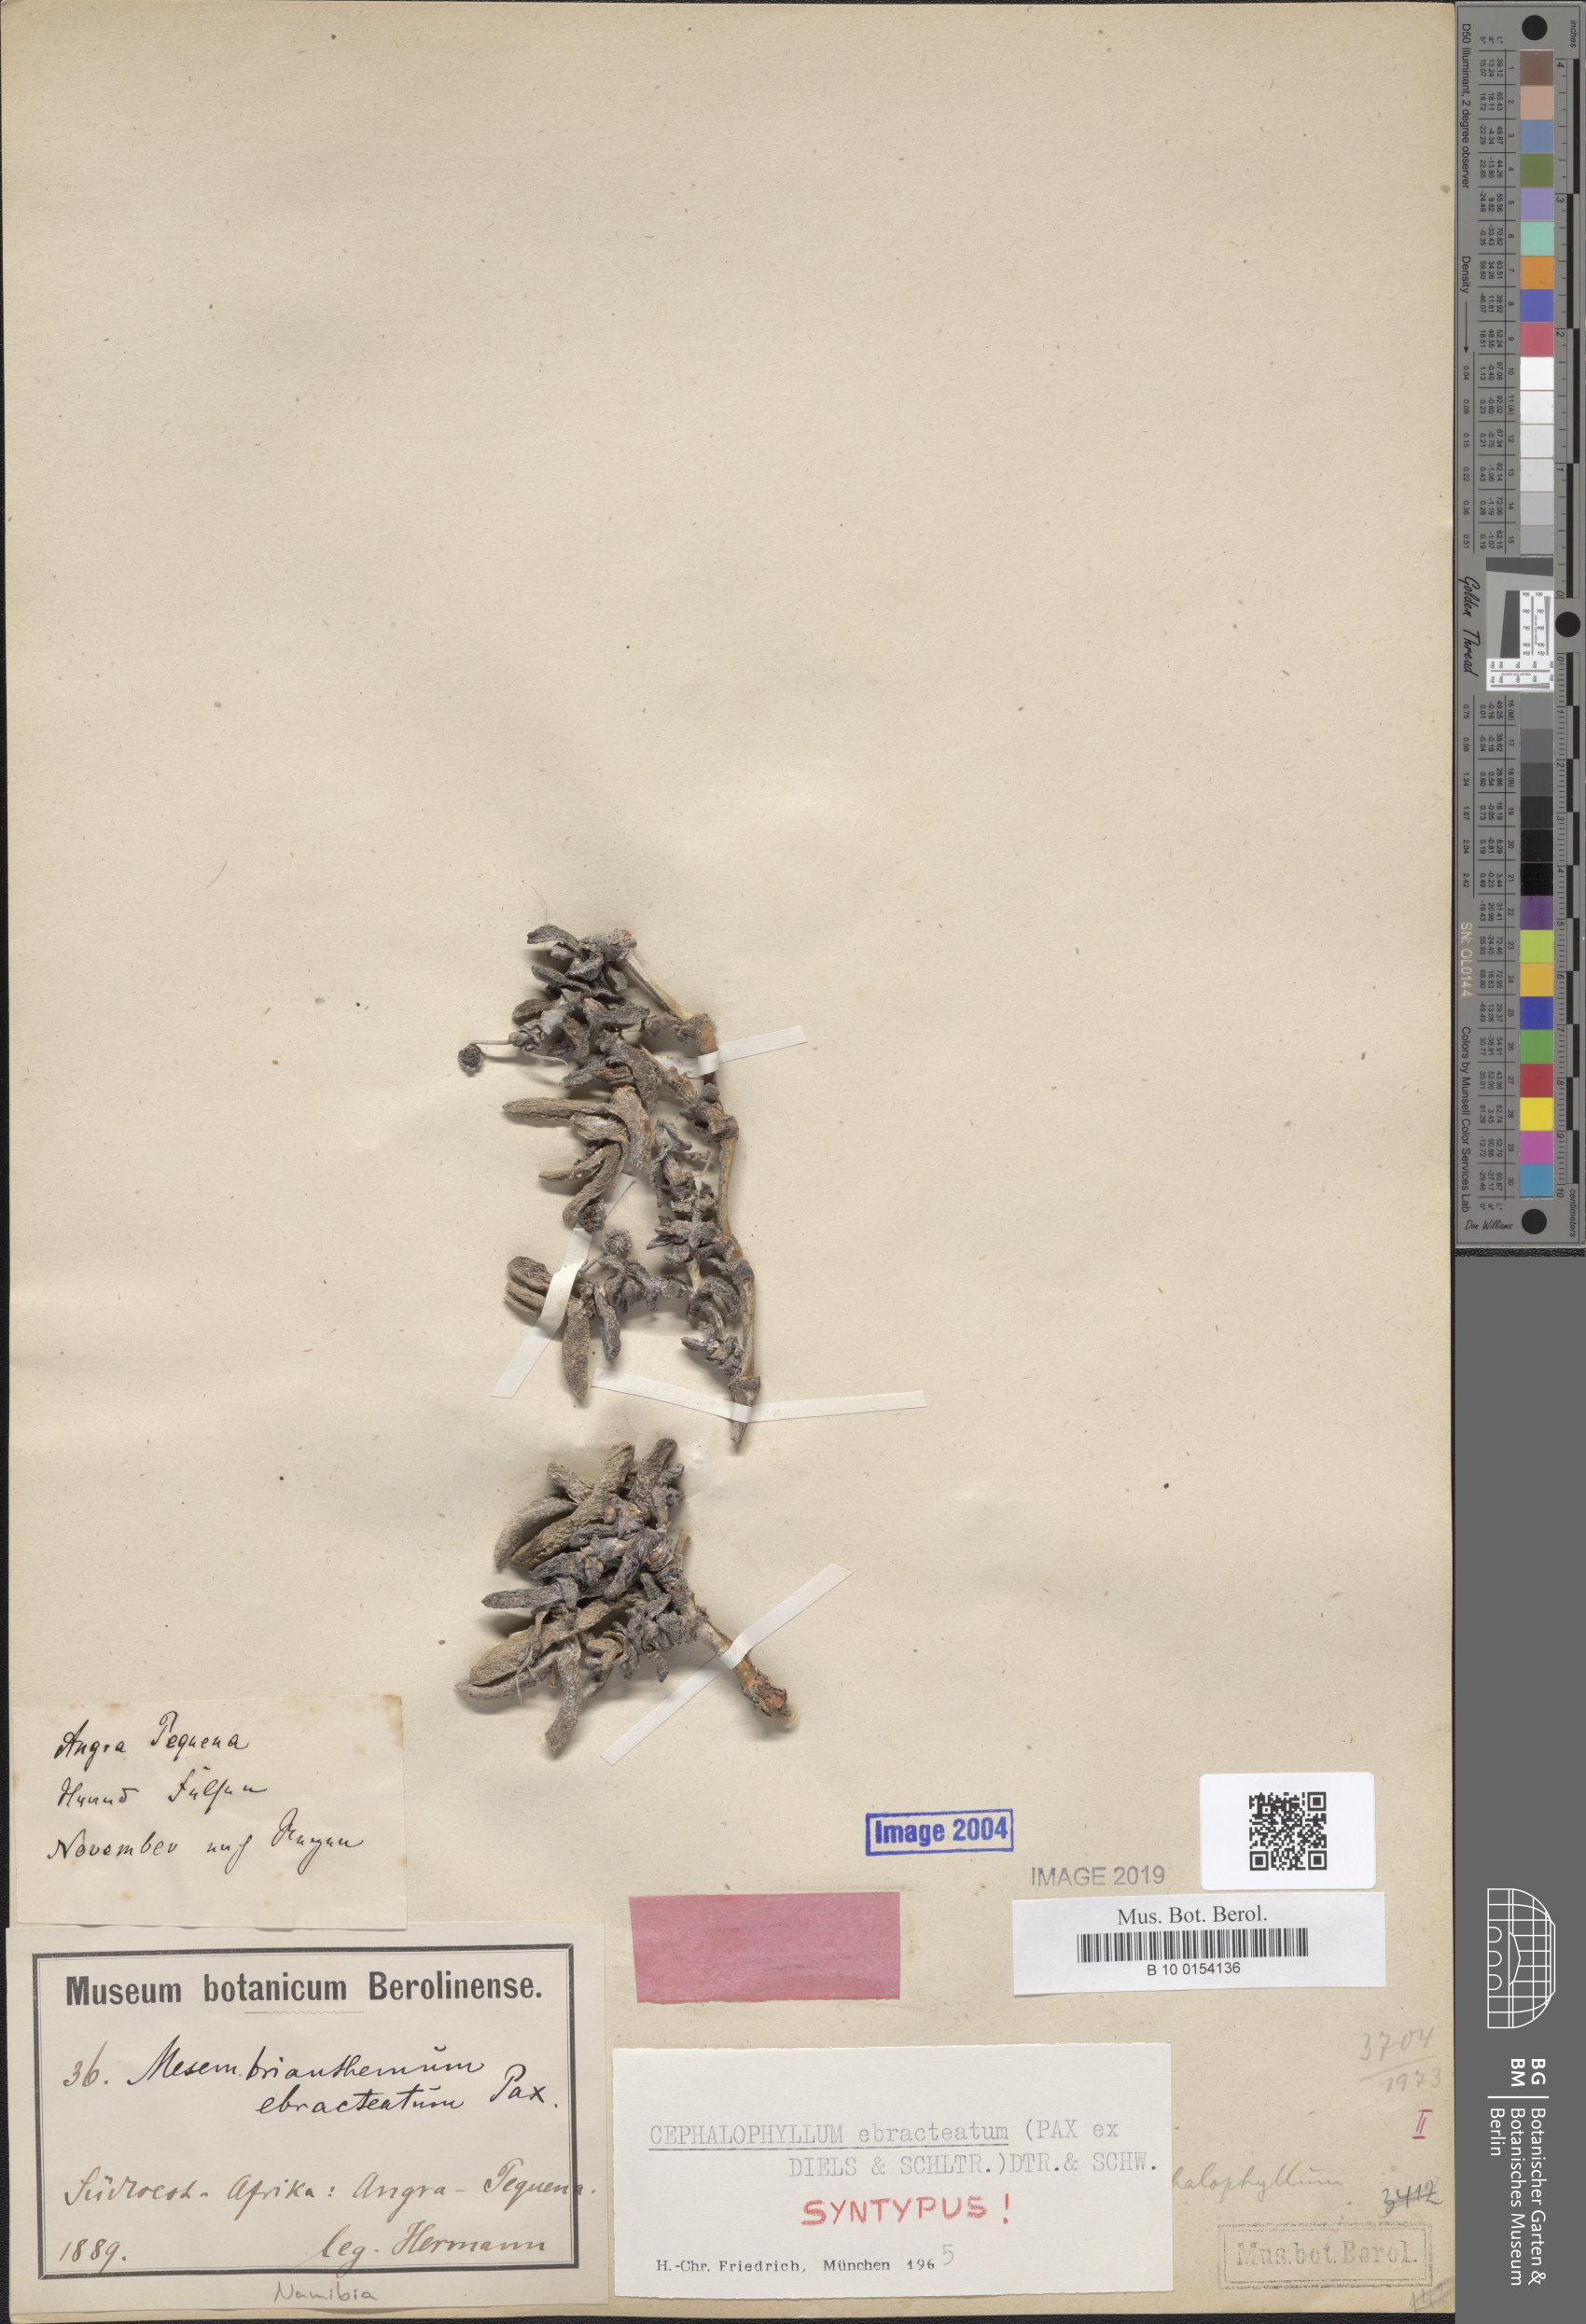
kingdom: Plantae
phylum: Tracheophyta
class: Magnoliopsida
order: Caryophyllales
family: Aizoaceae
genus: Cephalophyllum
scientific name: Cephalophyllum ebracteatum
